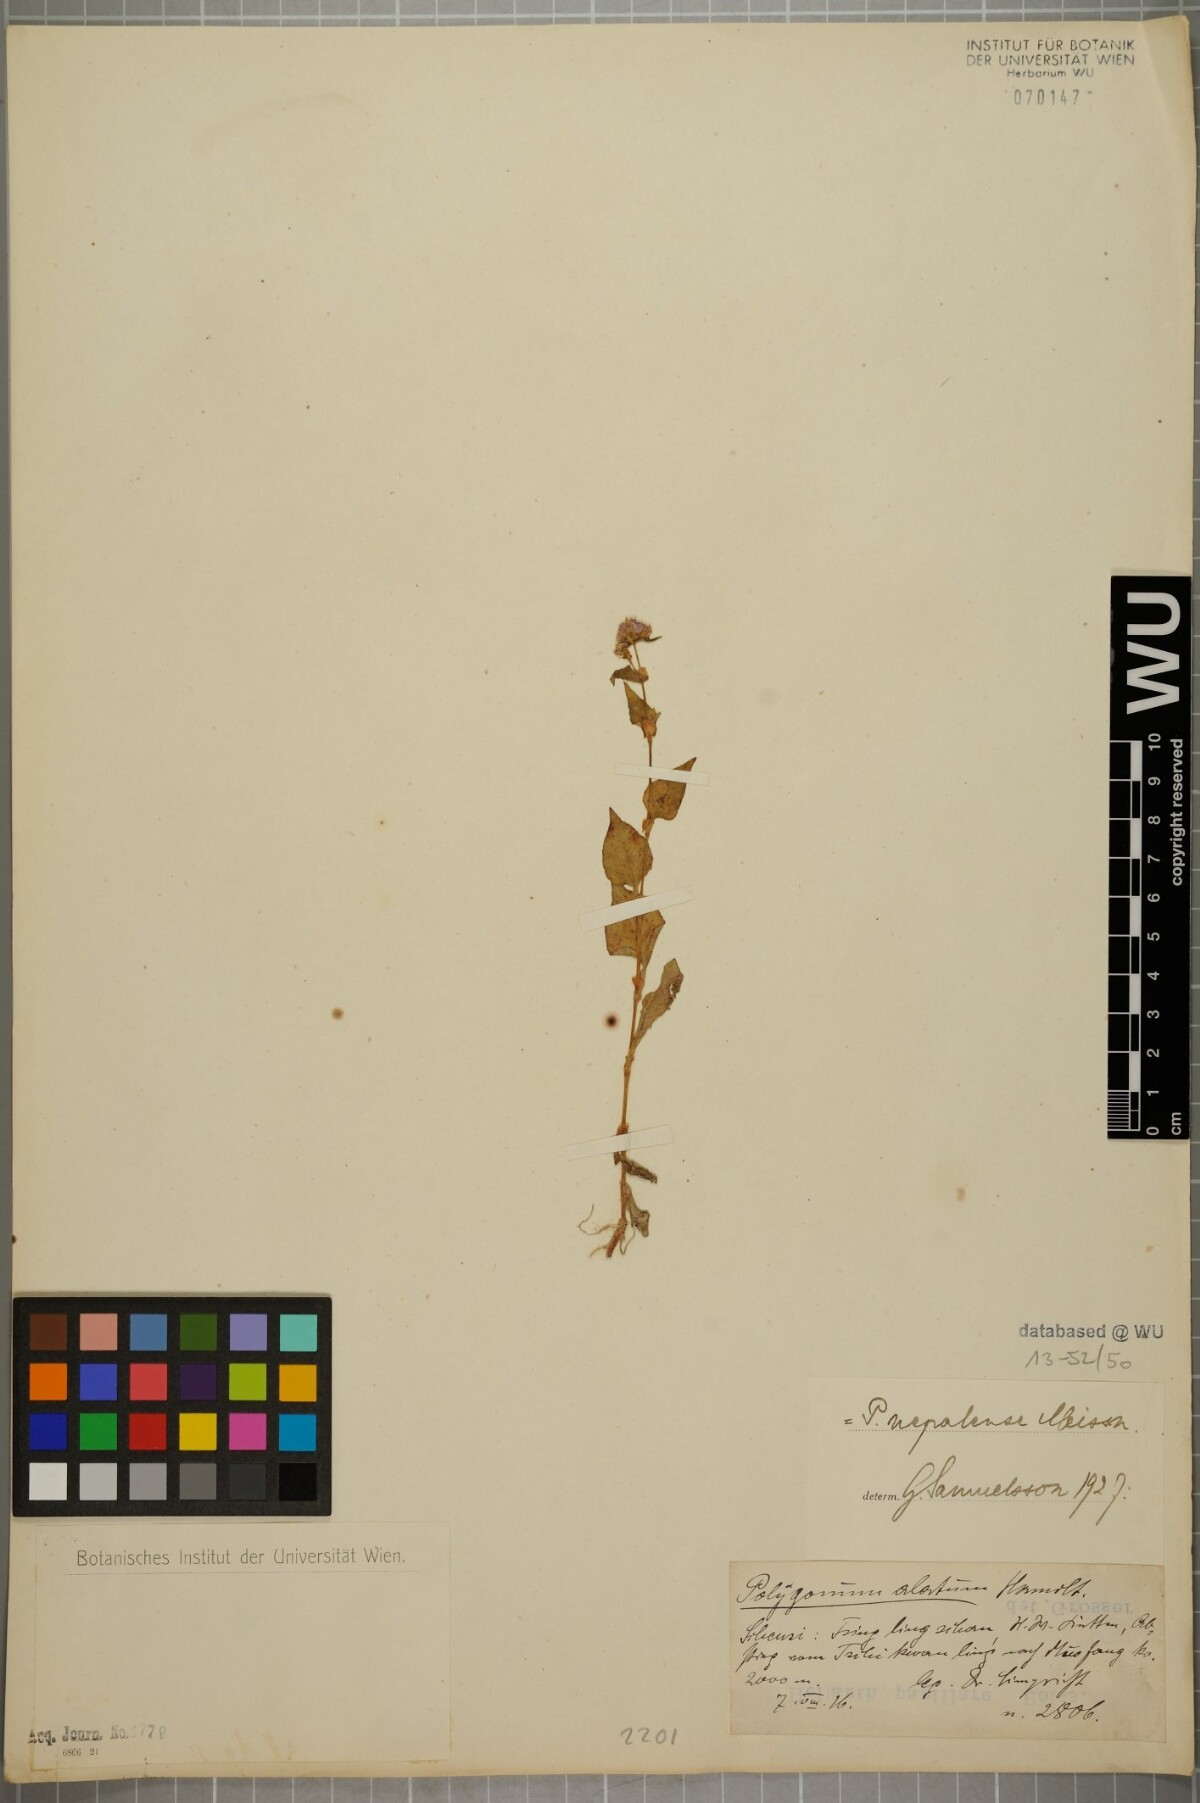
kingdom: Plantae
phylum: Tracheophyta
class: Magnoliopsida
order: Caryophyllales
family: Polygonaceae
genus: Persicaria
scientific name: Persicaria nepalensis
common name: Nepal persicaria
